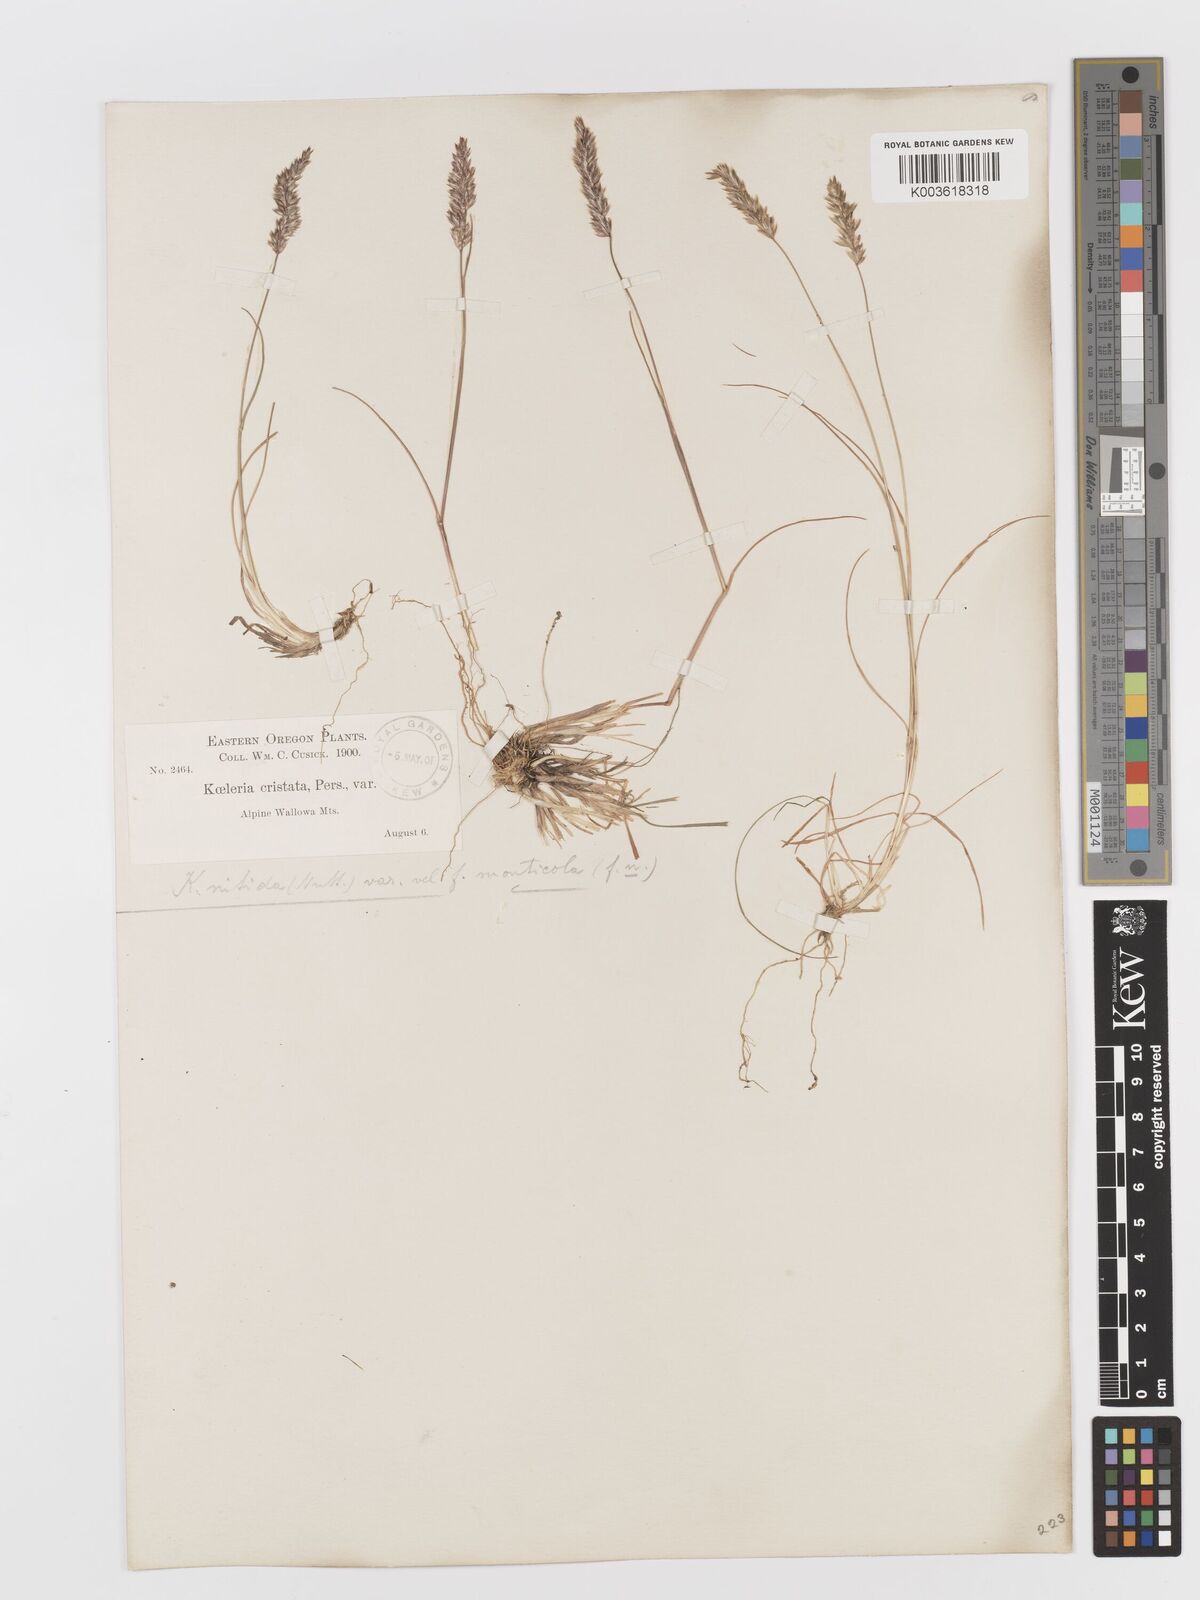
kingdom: Plantae
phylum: Tracheophyta
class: Liliopsida
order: Poales
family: Poaceae
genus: Koeleria
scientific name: Koeleria macrantha
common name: Crested hair-grass
